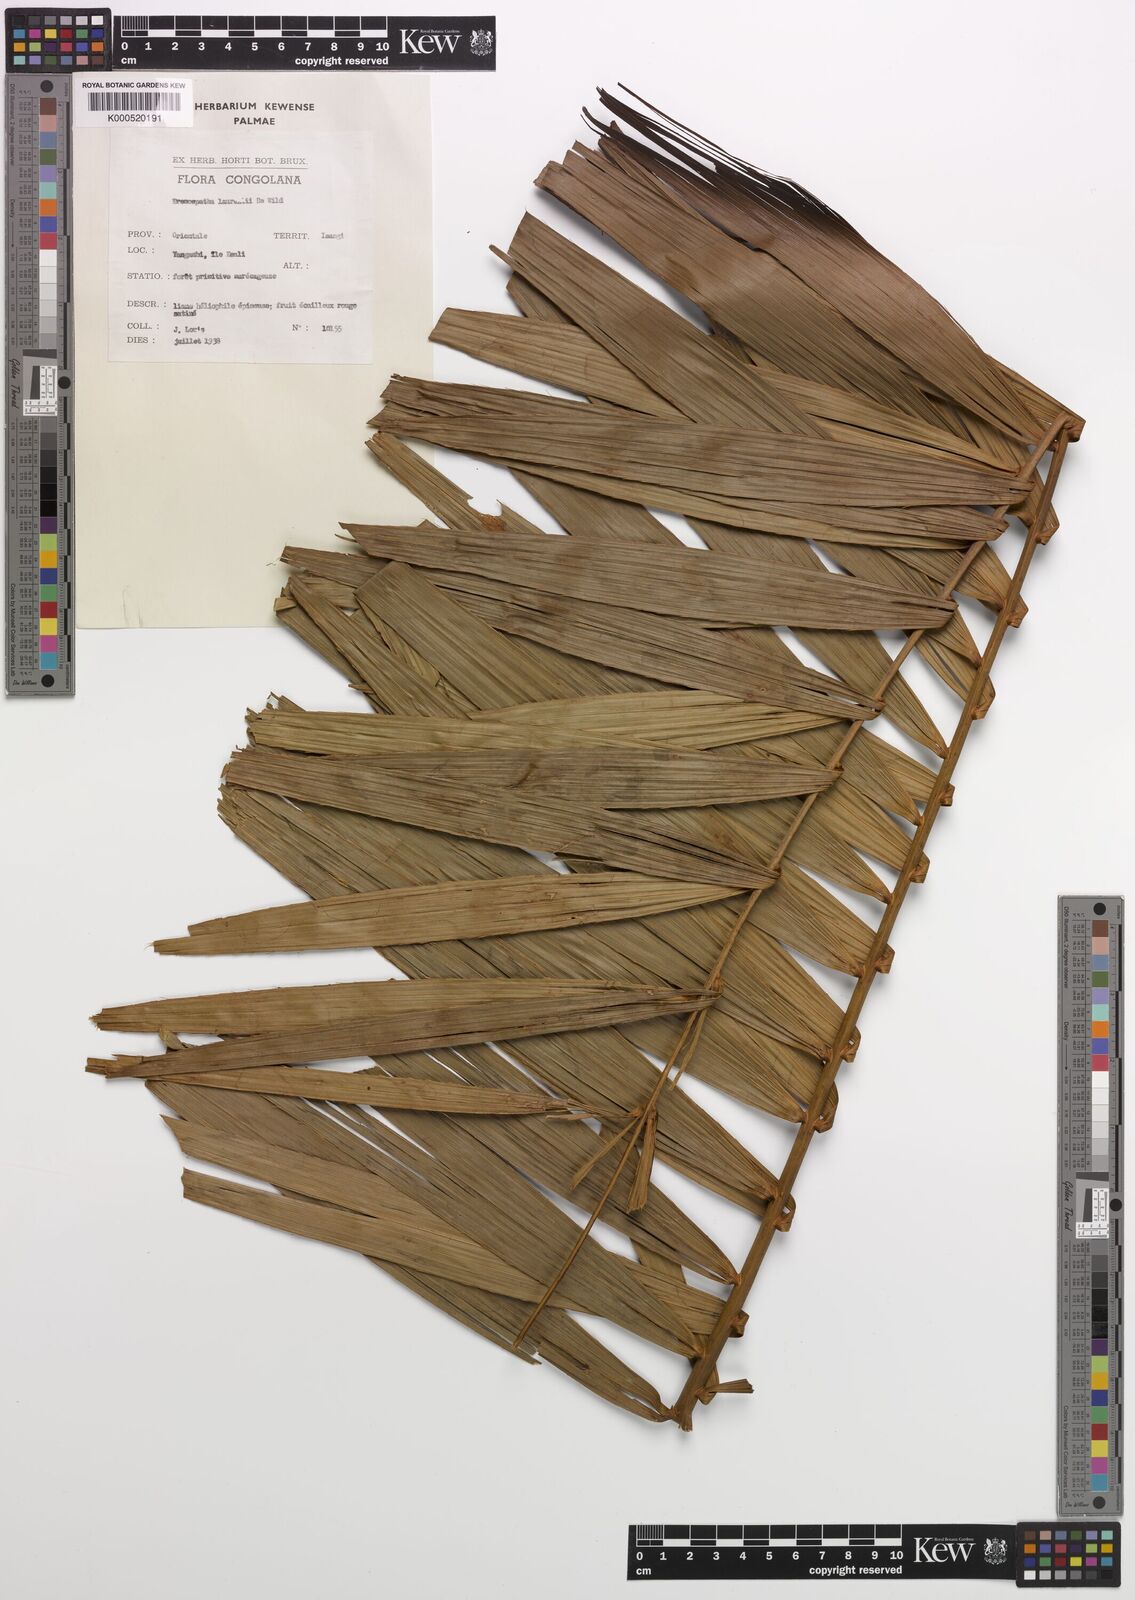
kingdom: Plantae
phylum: Tracheophyta
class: Liliopsida
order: Arecales
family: Arecaceae
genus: Eremospatha
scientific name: Eremospatha laurentii
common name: Rattan palm
